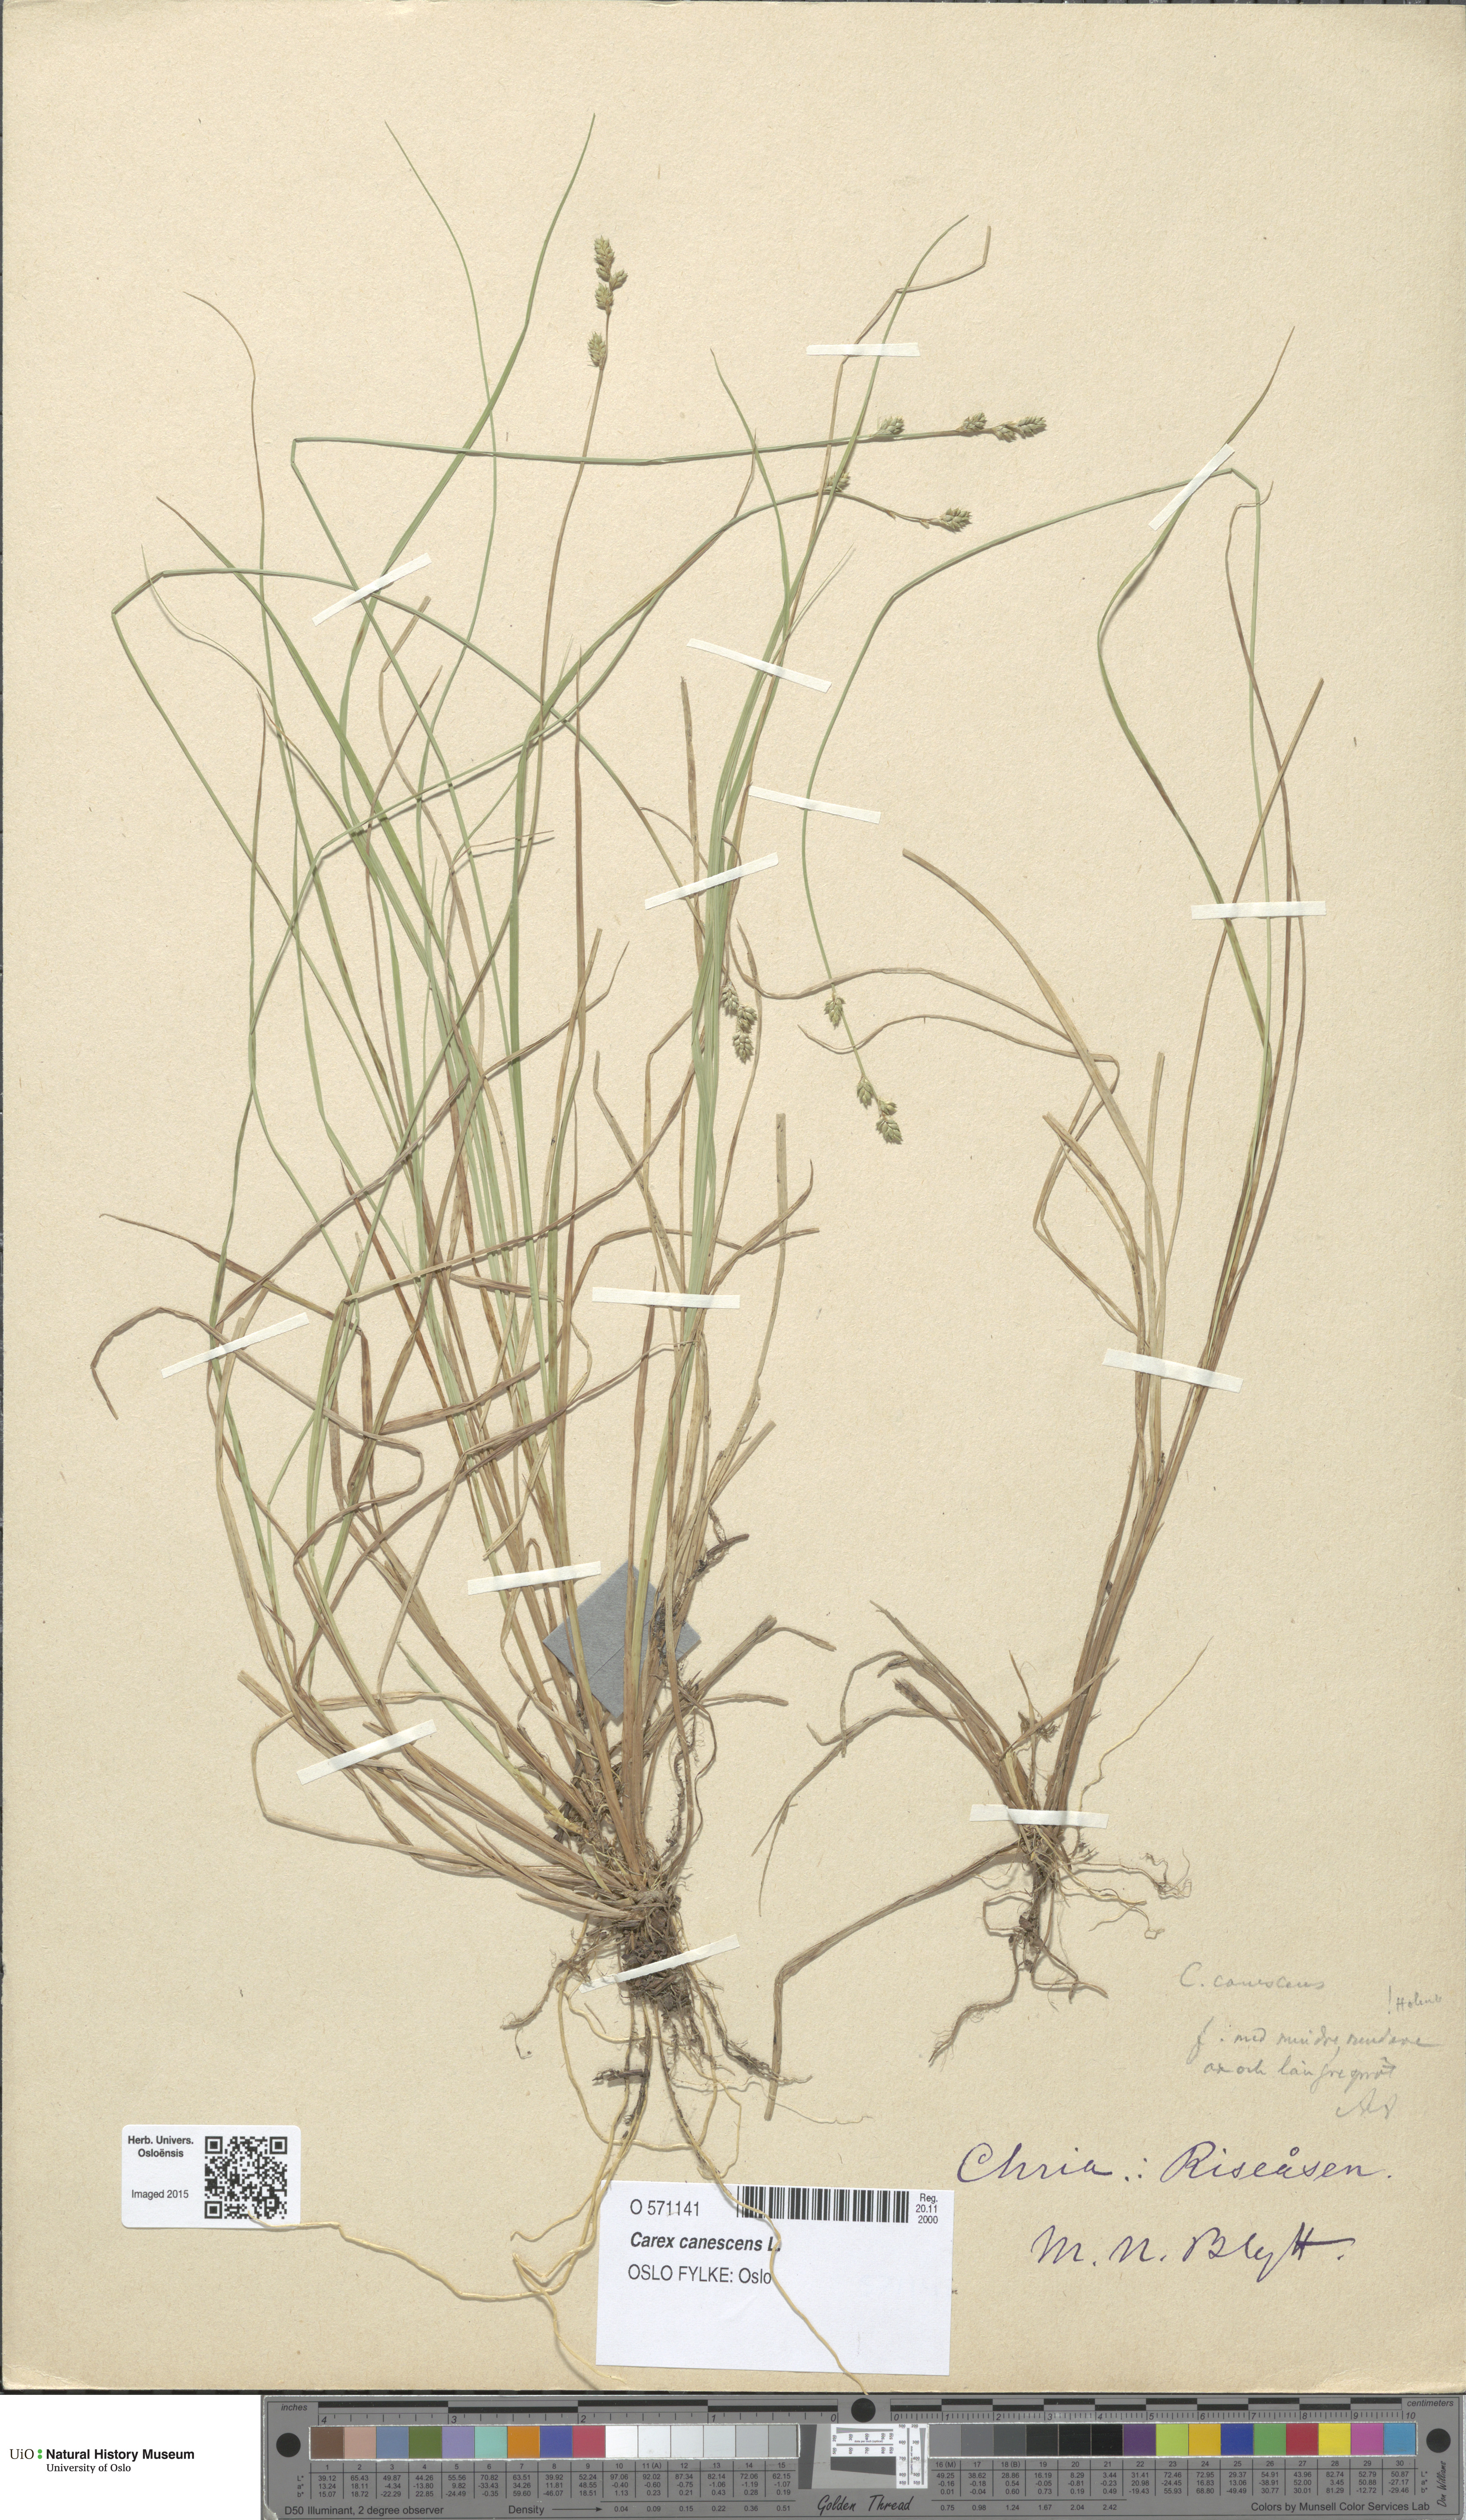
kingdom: Plantae
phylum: Tracheophyta
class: Liliopsida
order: Poales
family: Cyperaceae
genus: Carex
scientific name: Carex canescens
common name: White sedge
